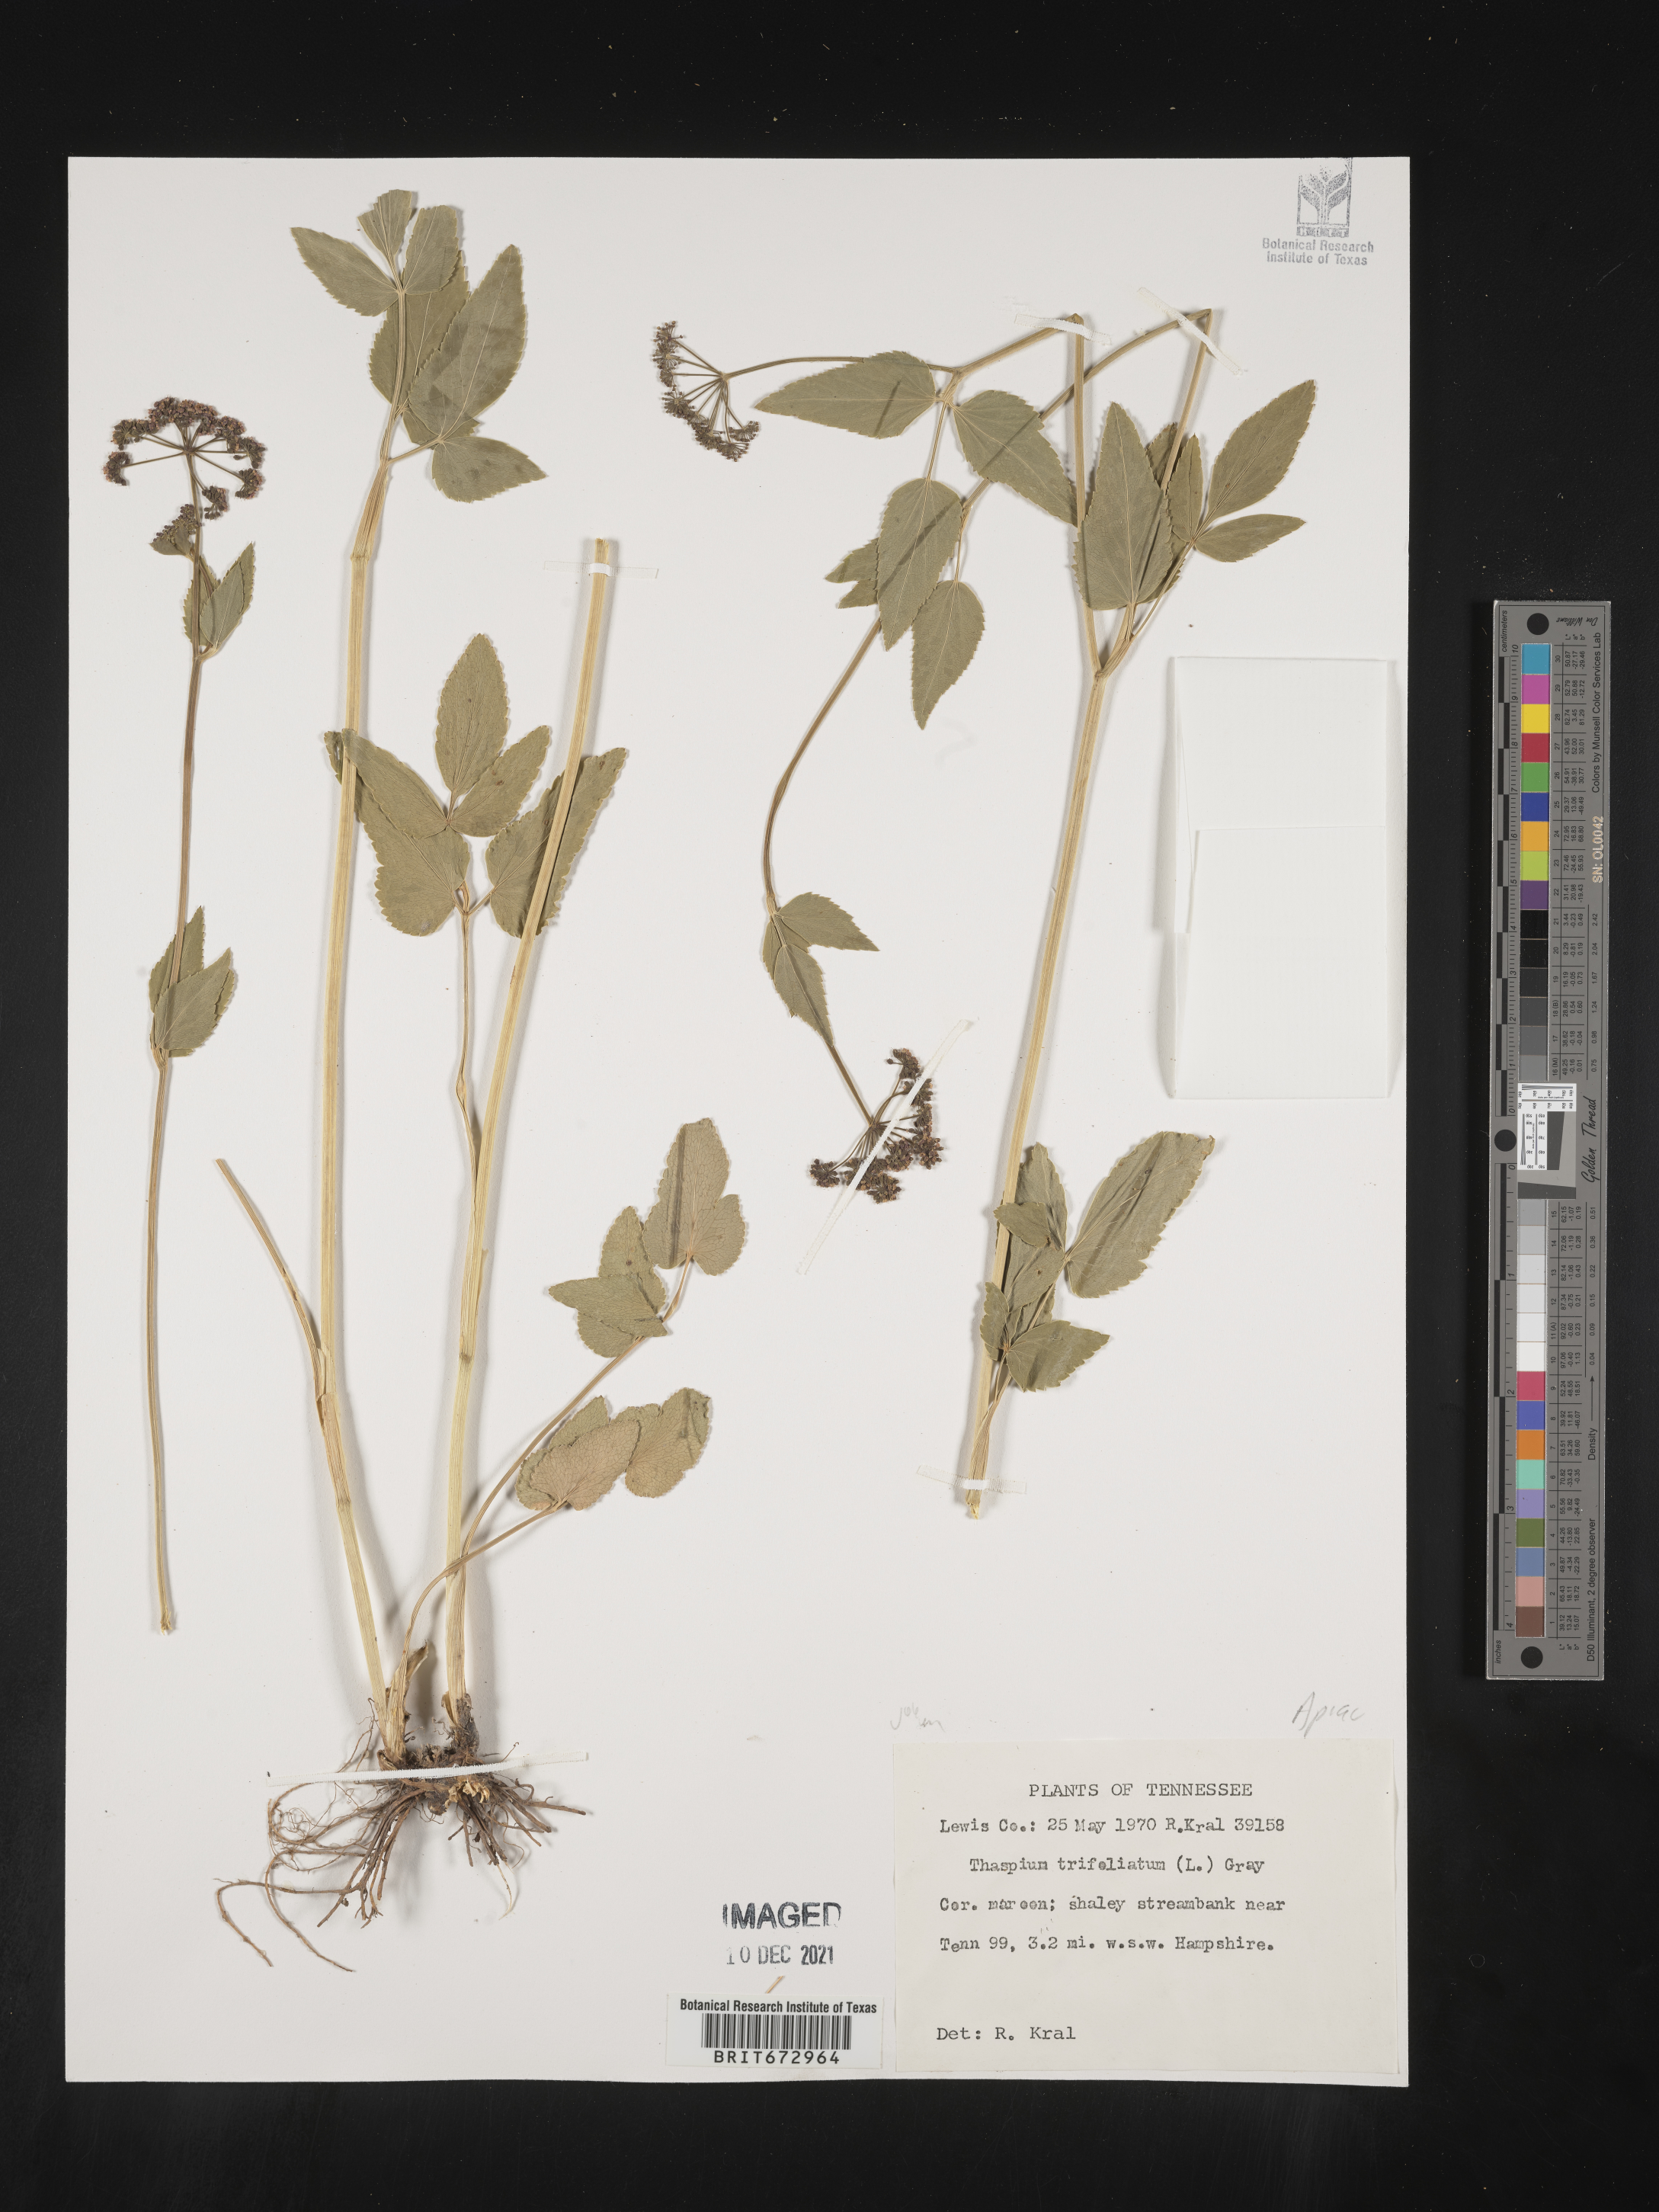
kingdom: Plantae
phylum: Tracheophyta
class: Magnoliopsida
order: Apiales
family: Apiaceae
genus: Thaspium
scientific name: Thaspium
